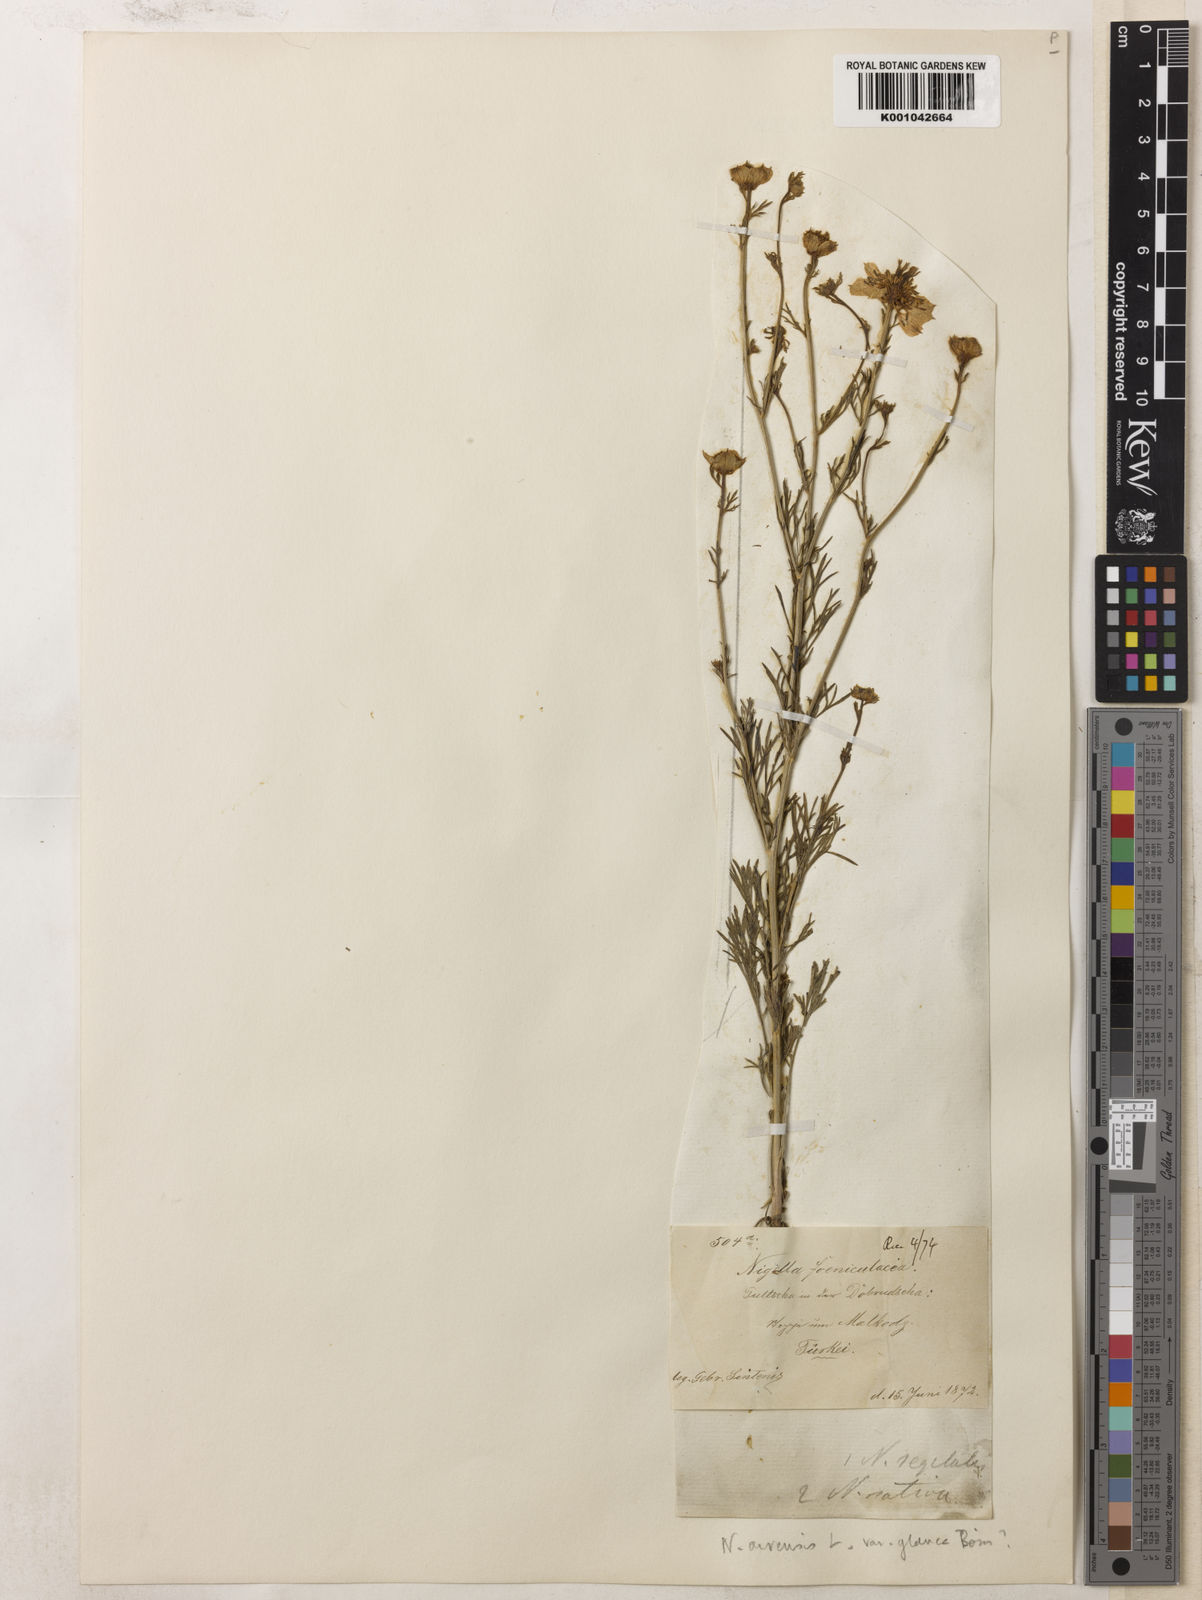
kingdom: Plantae
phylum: Tracheophyta
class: Magnoliopsida
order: Ranunculales
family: Ranunculaceae
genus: Nigella
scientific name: Nigella arvensis
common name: Wild fennel-flower
